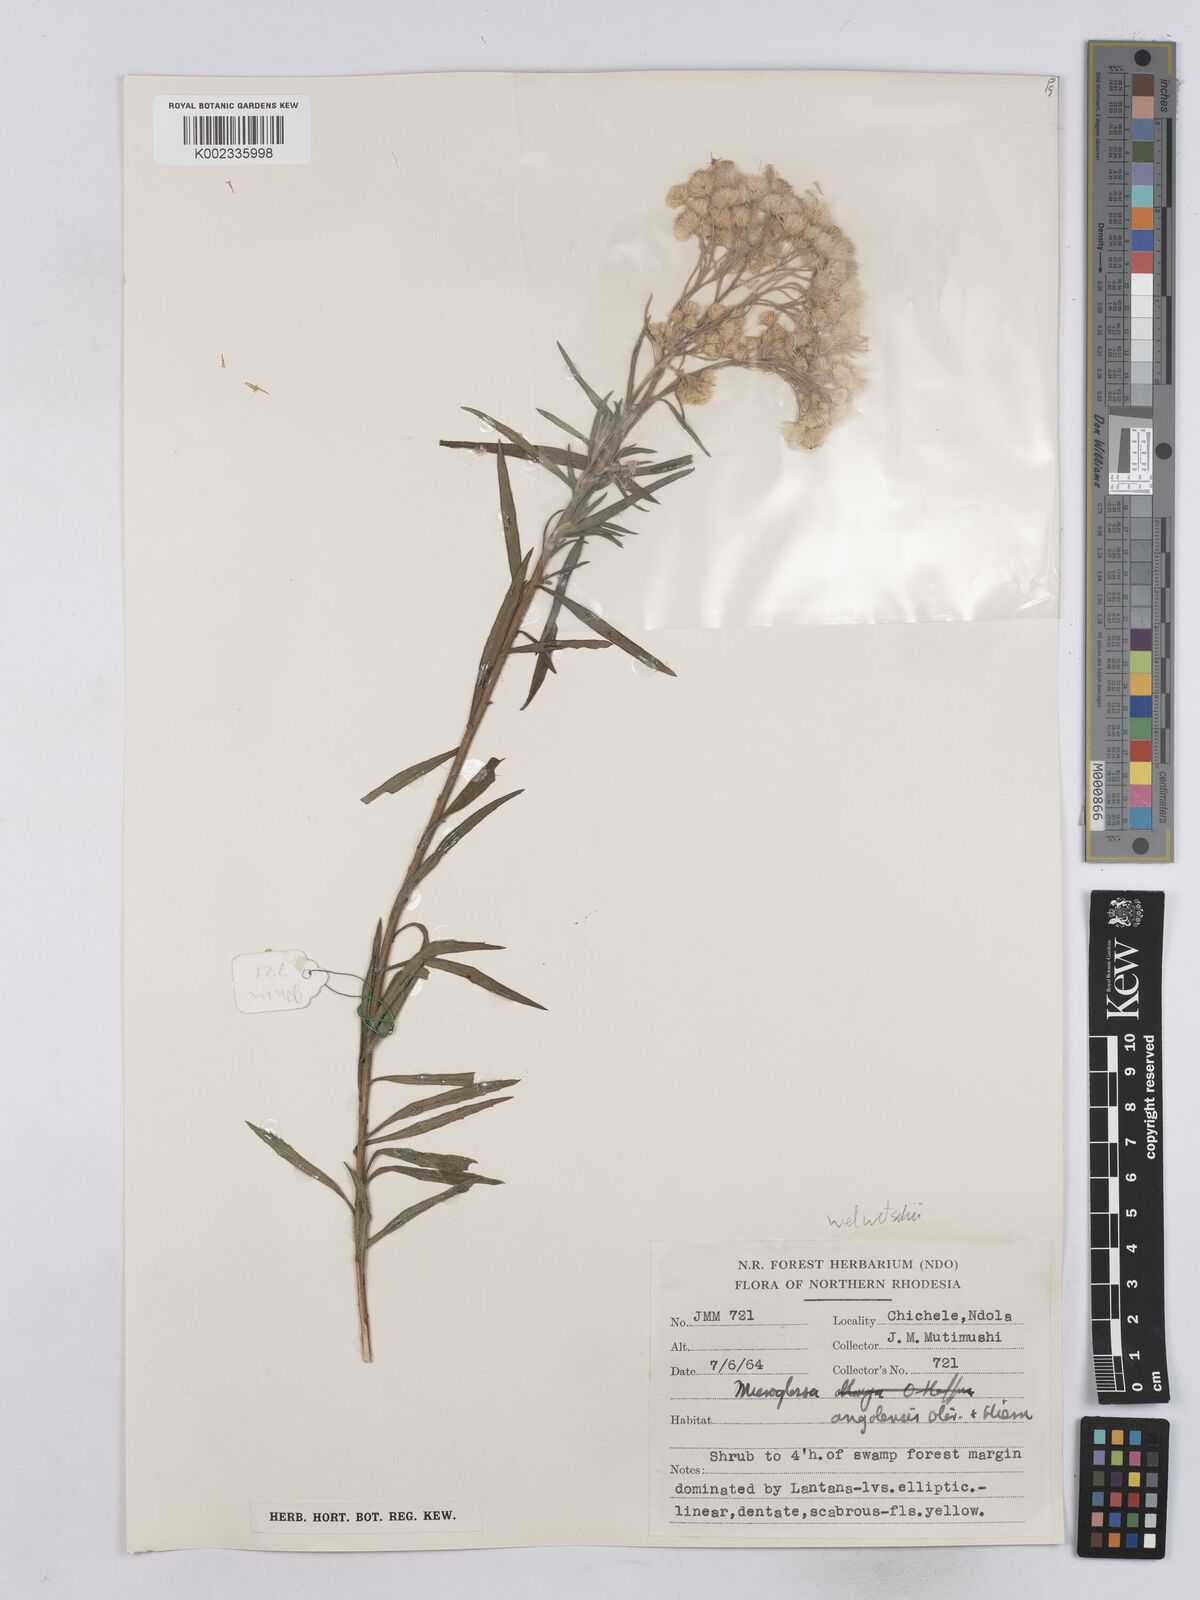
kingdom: Plantae
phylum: Tracheophyta
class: Magnoliopsida
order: Asterales
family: Asteraceae
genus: Nidorella
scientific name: Nidorella welwitschii
